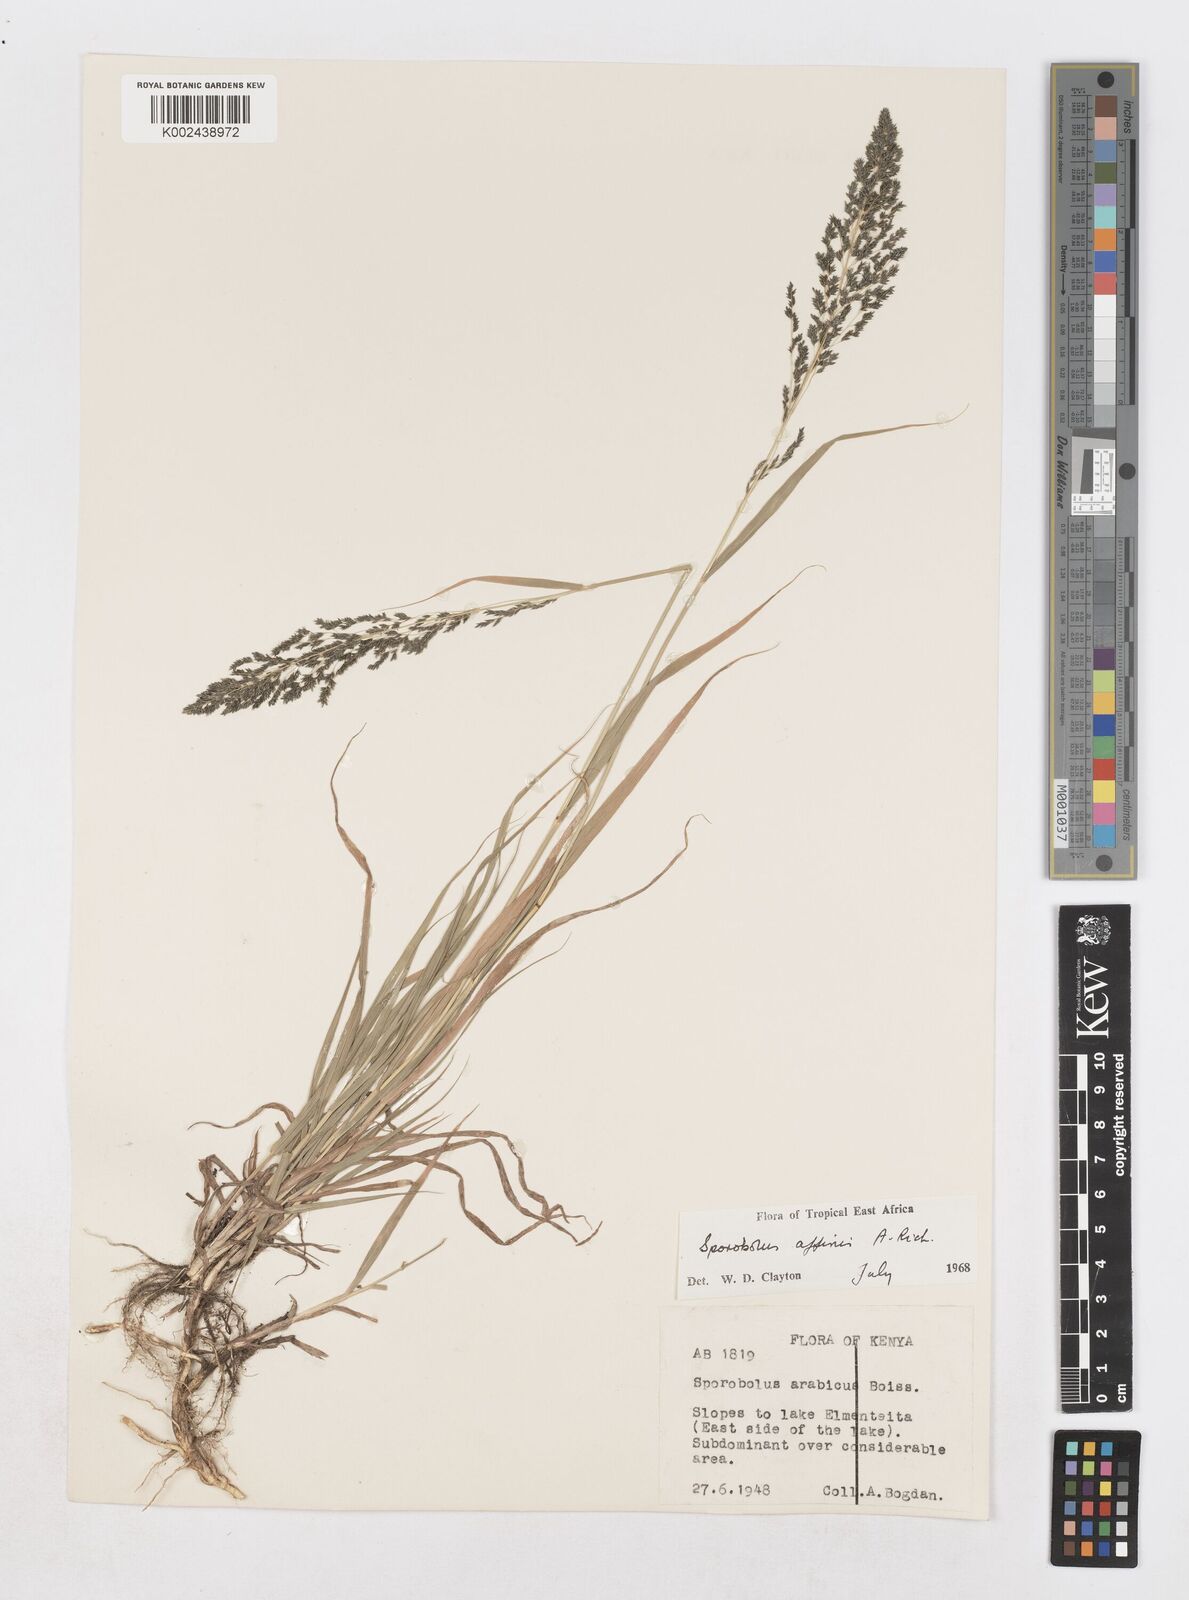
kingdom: Plantae
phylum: Tracheophyta
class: Liliopsida
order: Poales
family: Poaceae
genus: Sporobolus
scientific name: Sporobolus confinis
